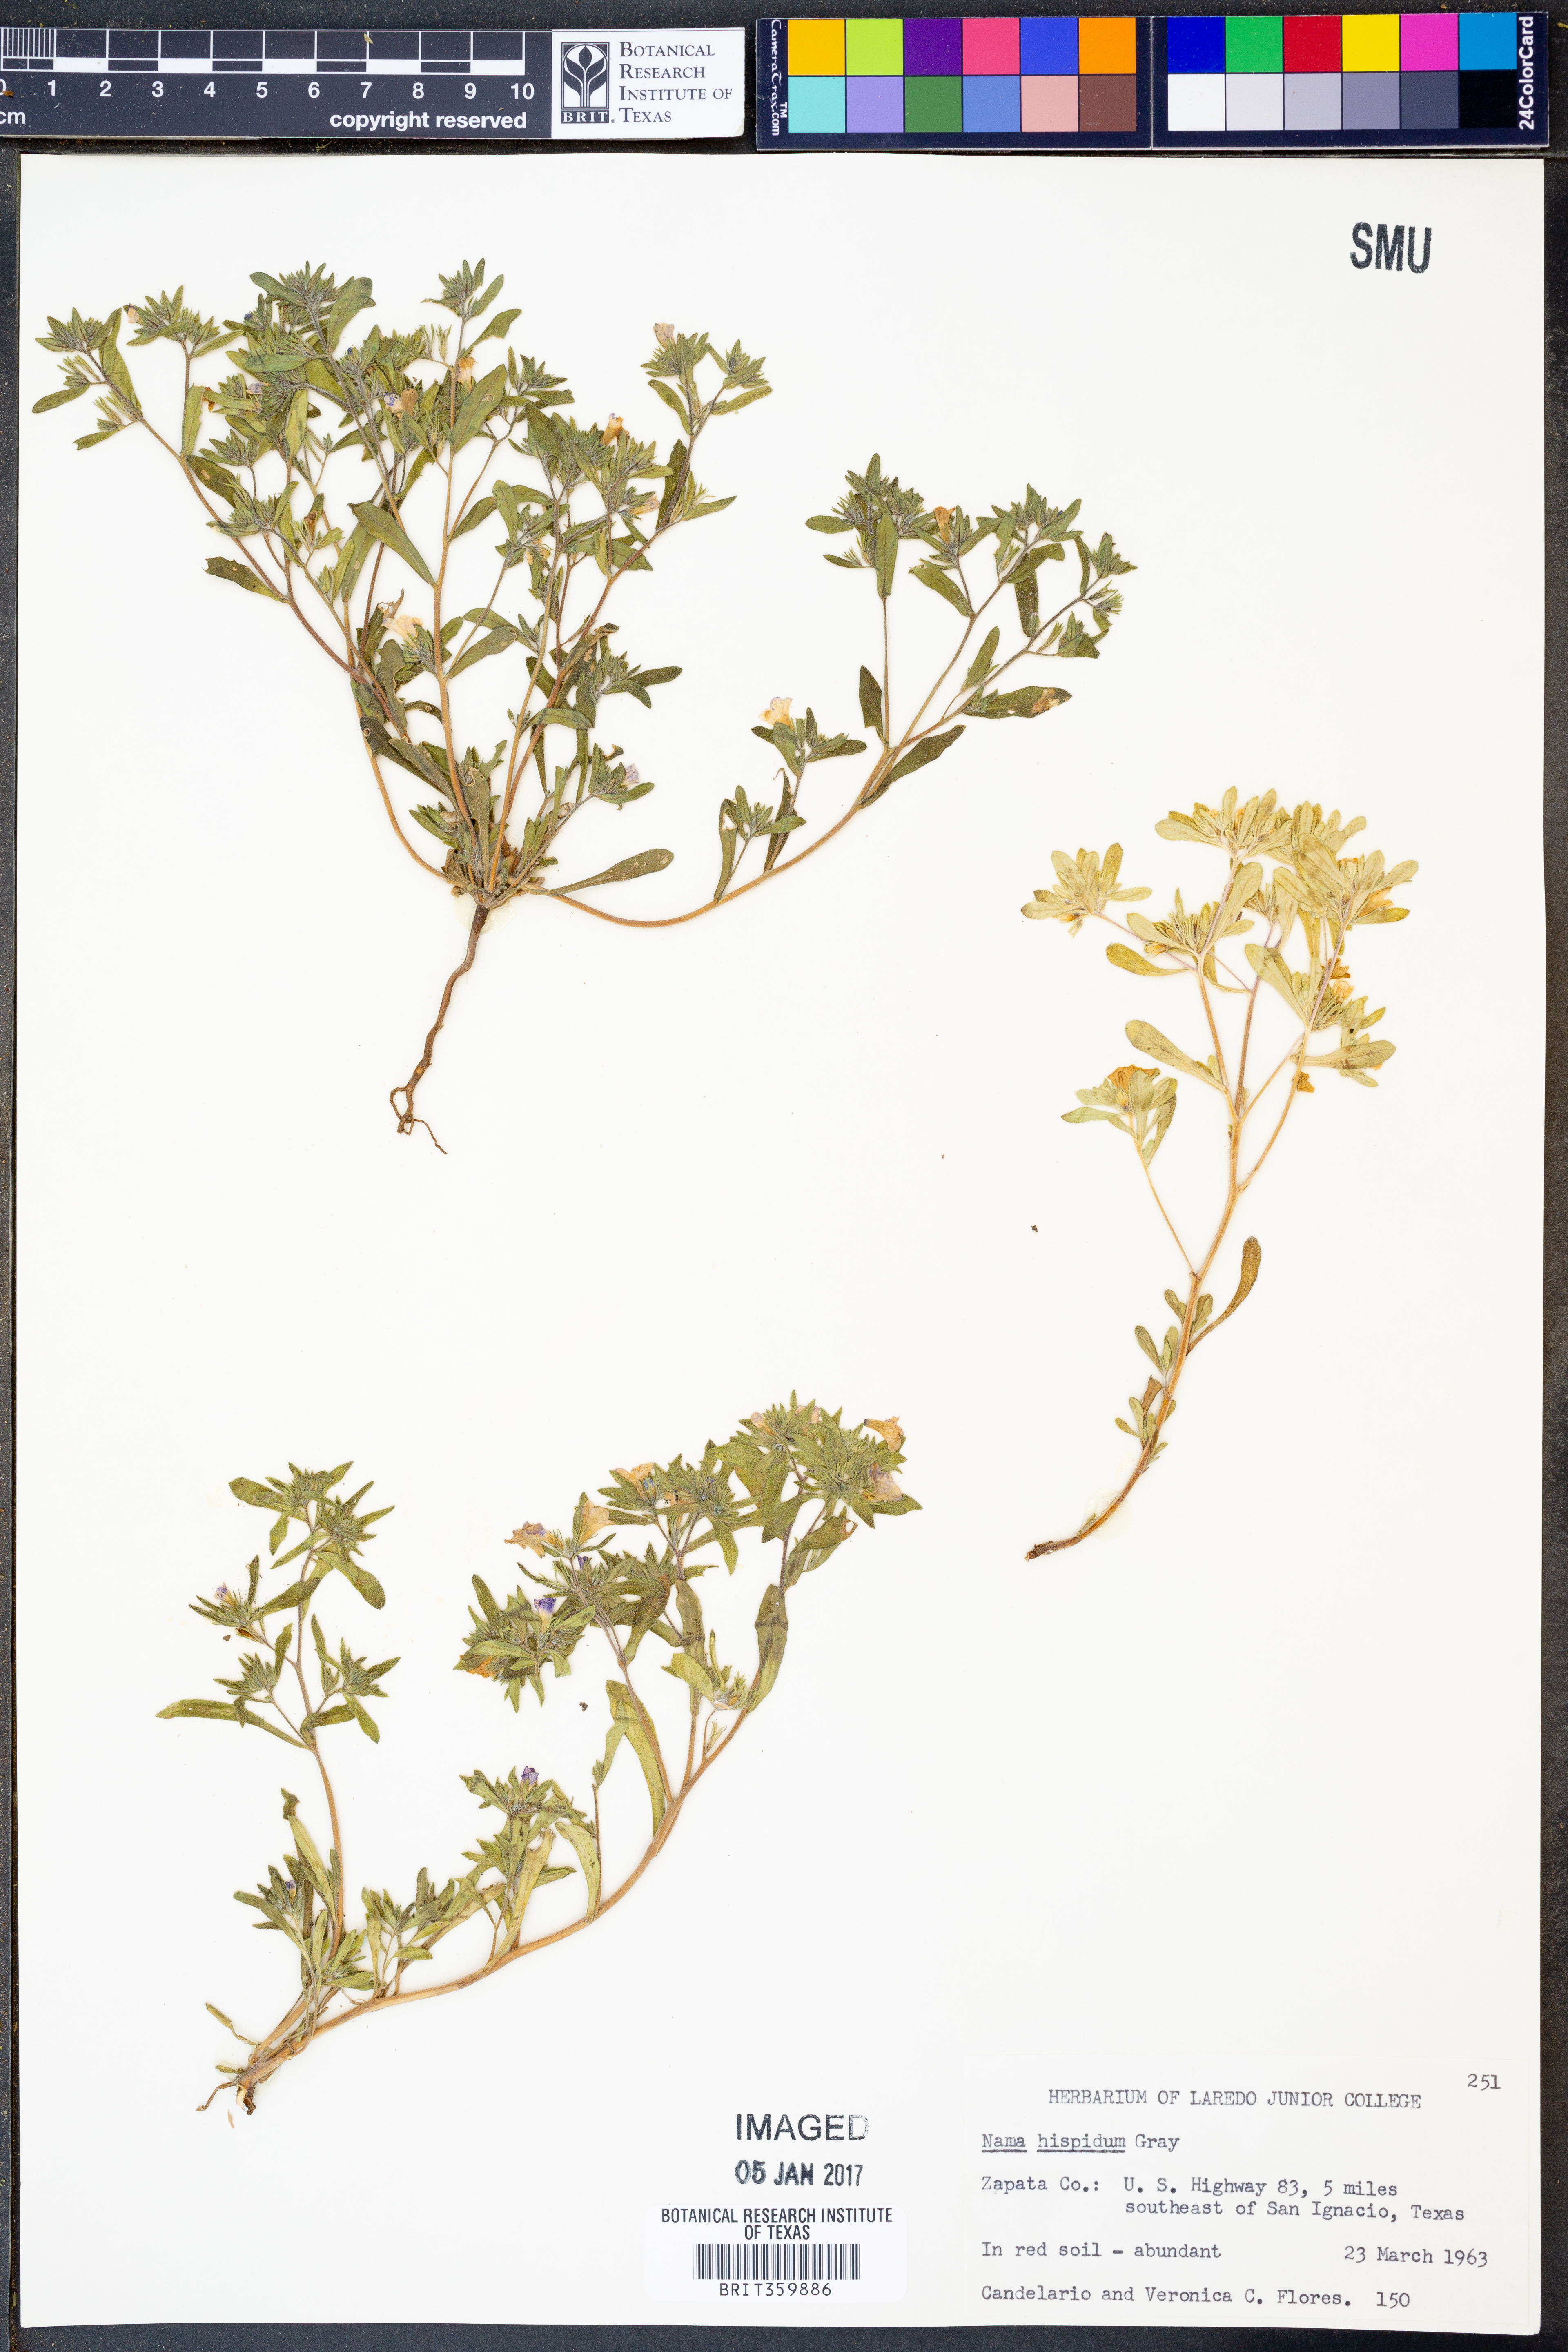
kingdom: Plantae
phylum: Tracheophyta
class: Magnoliopsida
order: Boraginales
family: Namaceae
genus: Nama
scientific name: Nama hispida
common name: Bristly nama
